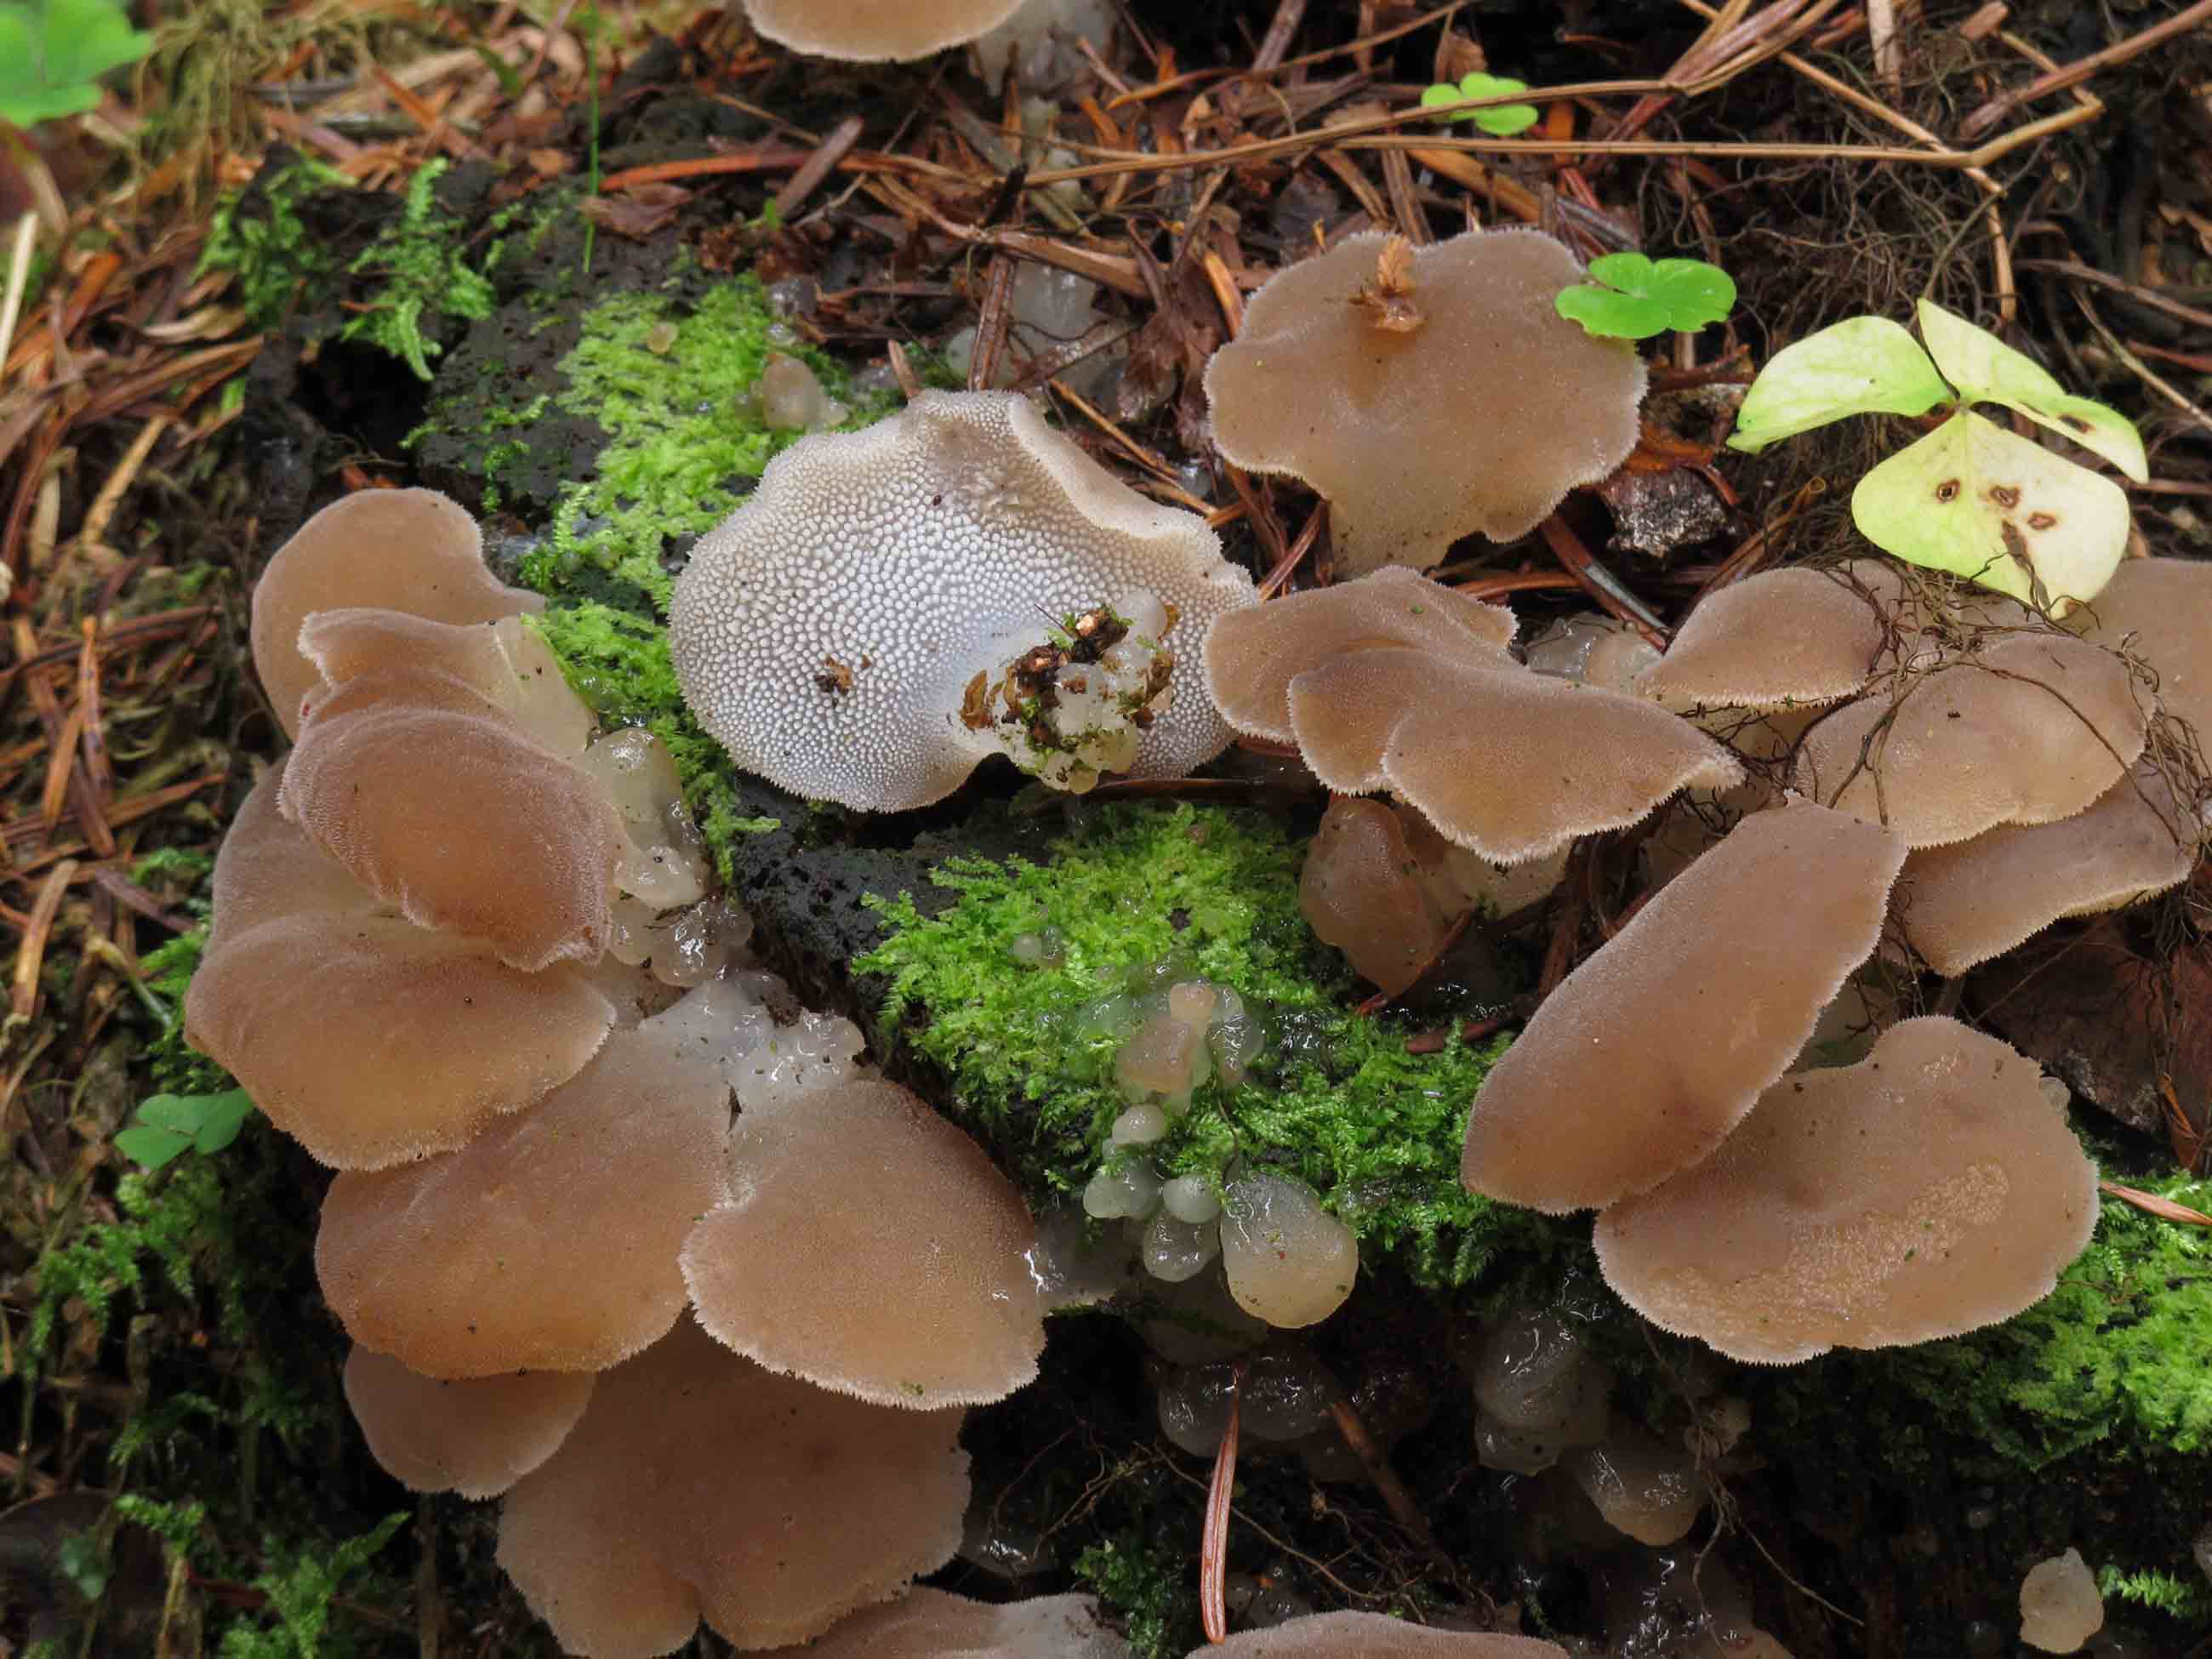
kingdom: Fungi
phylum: Basidiomycota
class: Agaricomycetes
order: Auriculariales
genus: Pseudohydnum
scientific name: Pseudohydnum gelatinosum
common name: bævretand
